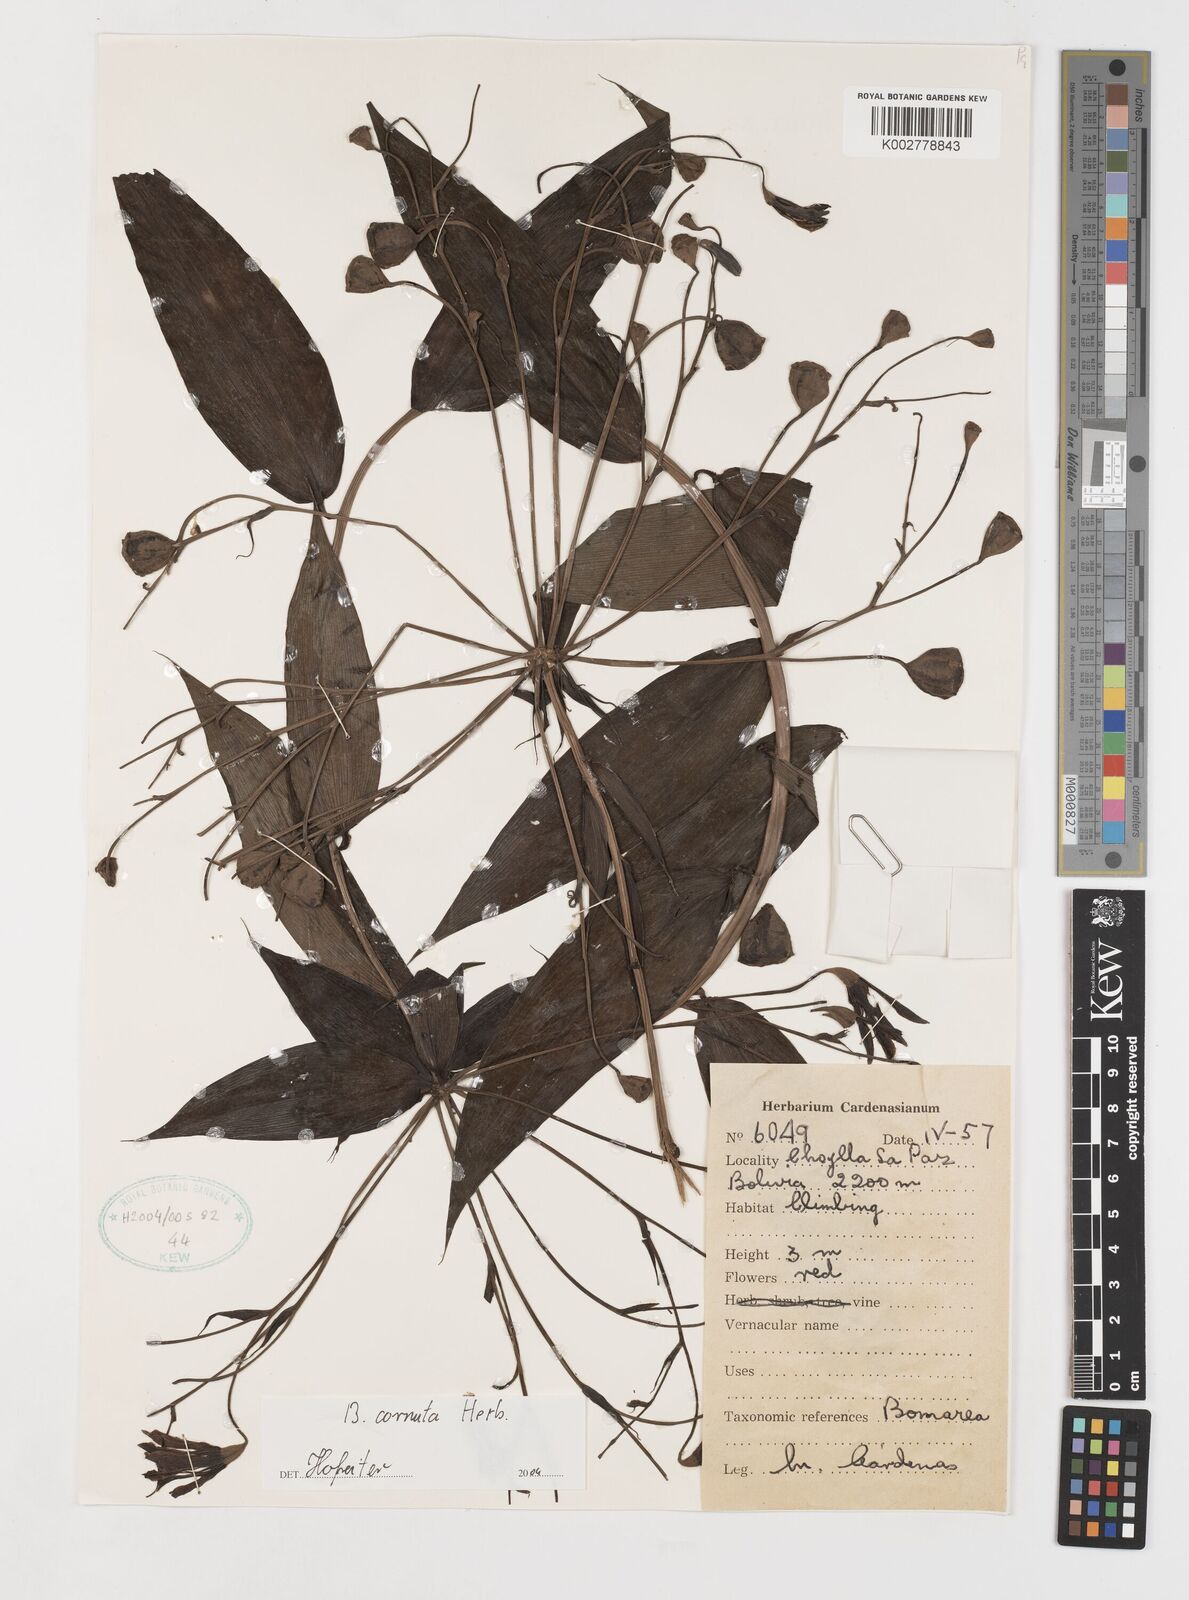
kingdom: Plantae
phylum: Tracheophyta
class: Liliopsida
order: Liliales
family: Alstroemeriaceae
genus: Bomarea
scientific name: Bomarea cornuta
